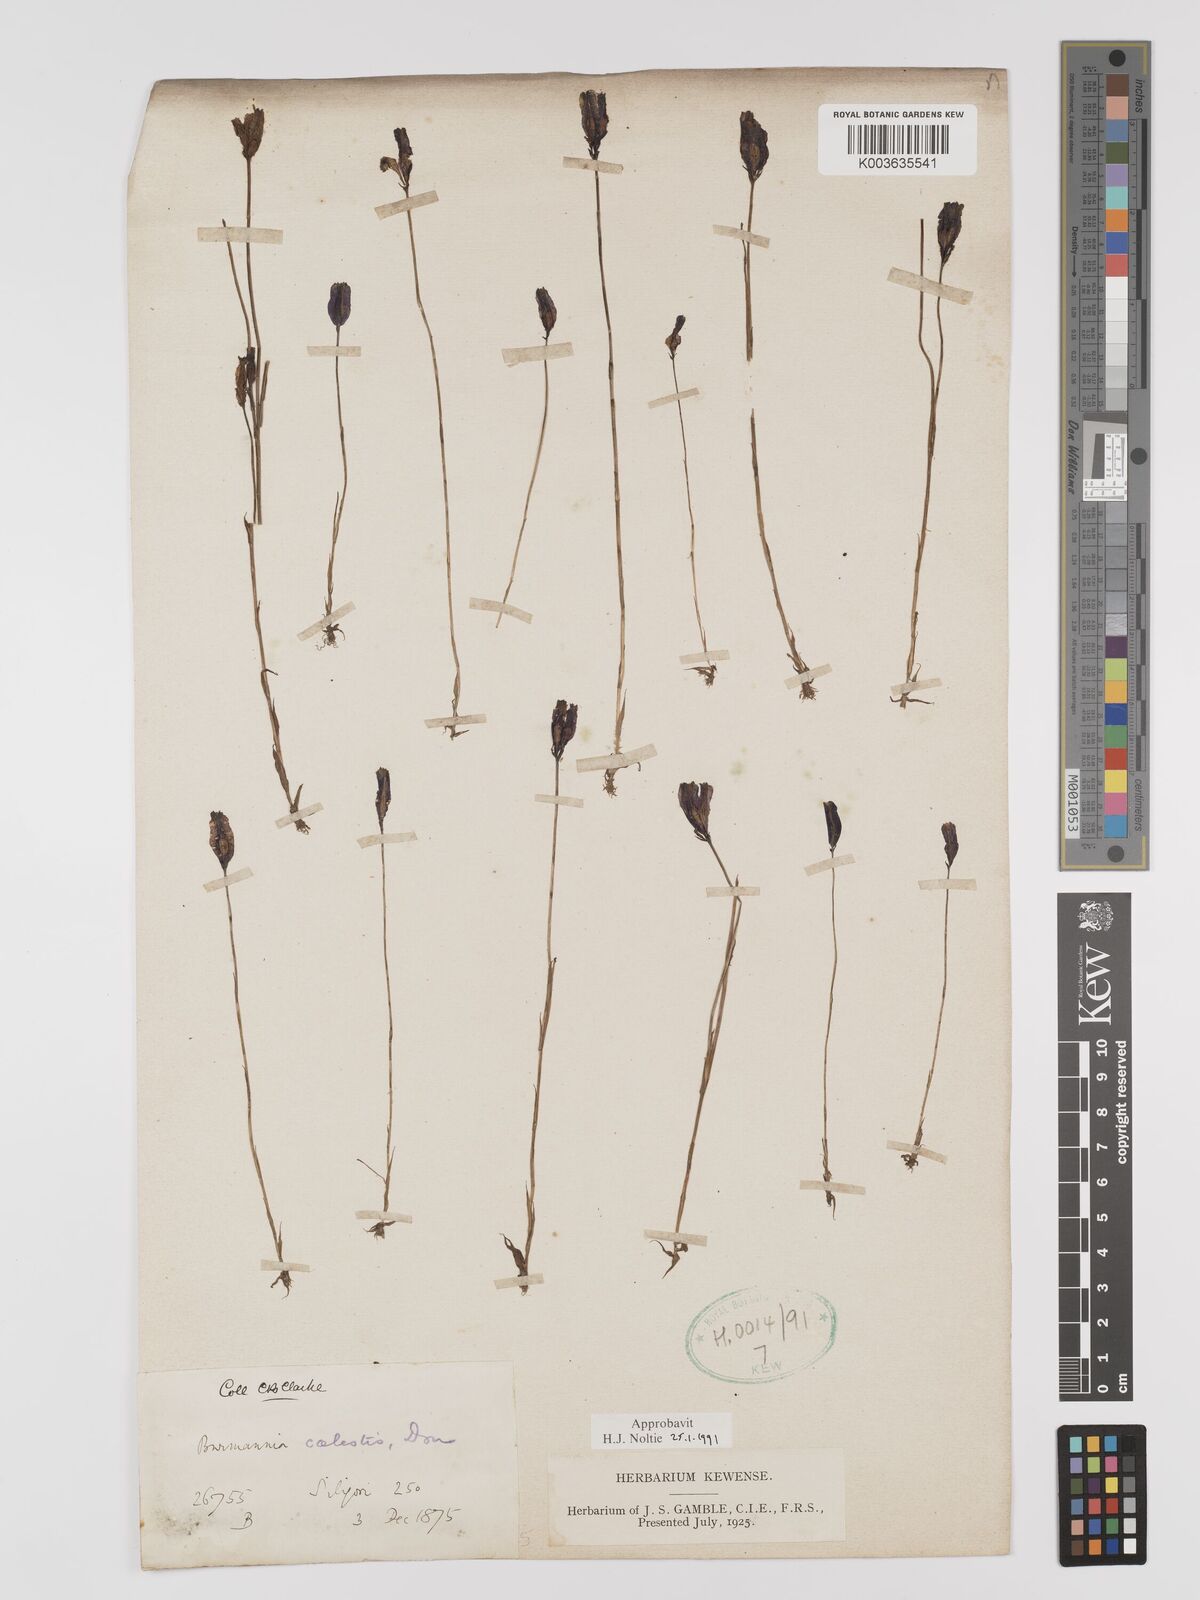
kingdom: Plantae
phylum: Tracheophyta
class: Liliopsida
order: Dioscoreales
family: Burmanniaceae
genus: Burmannia
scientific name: Burmannia coelestis
